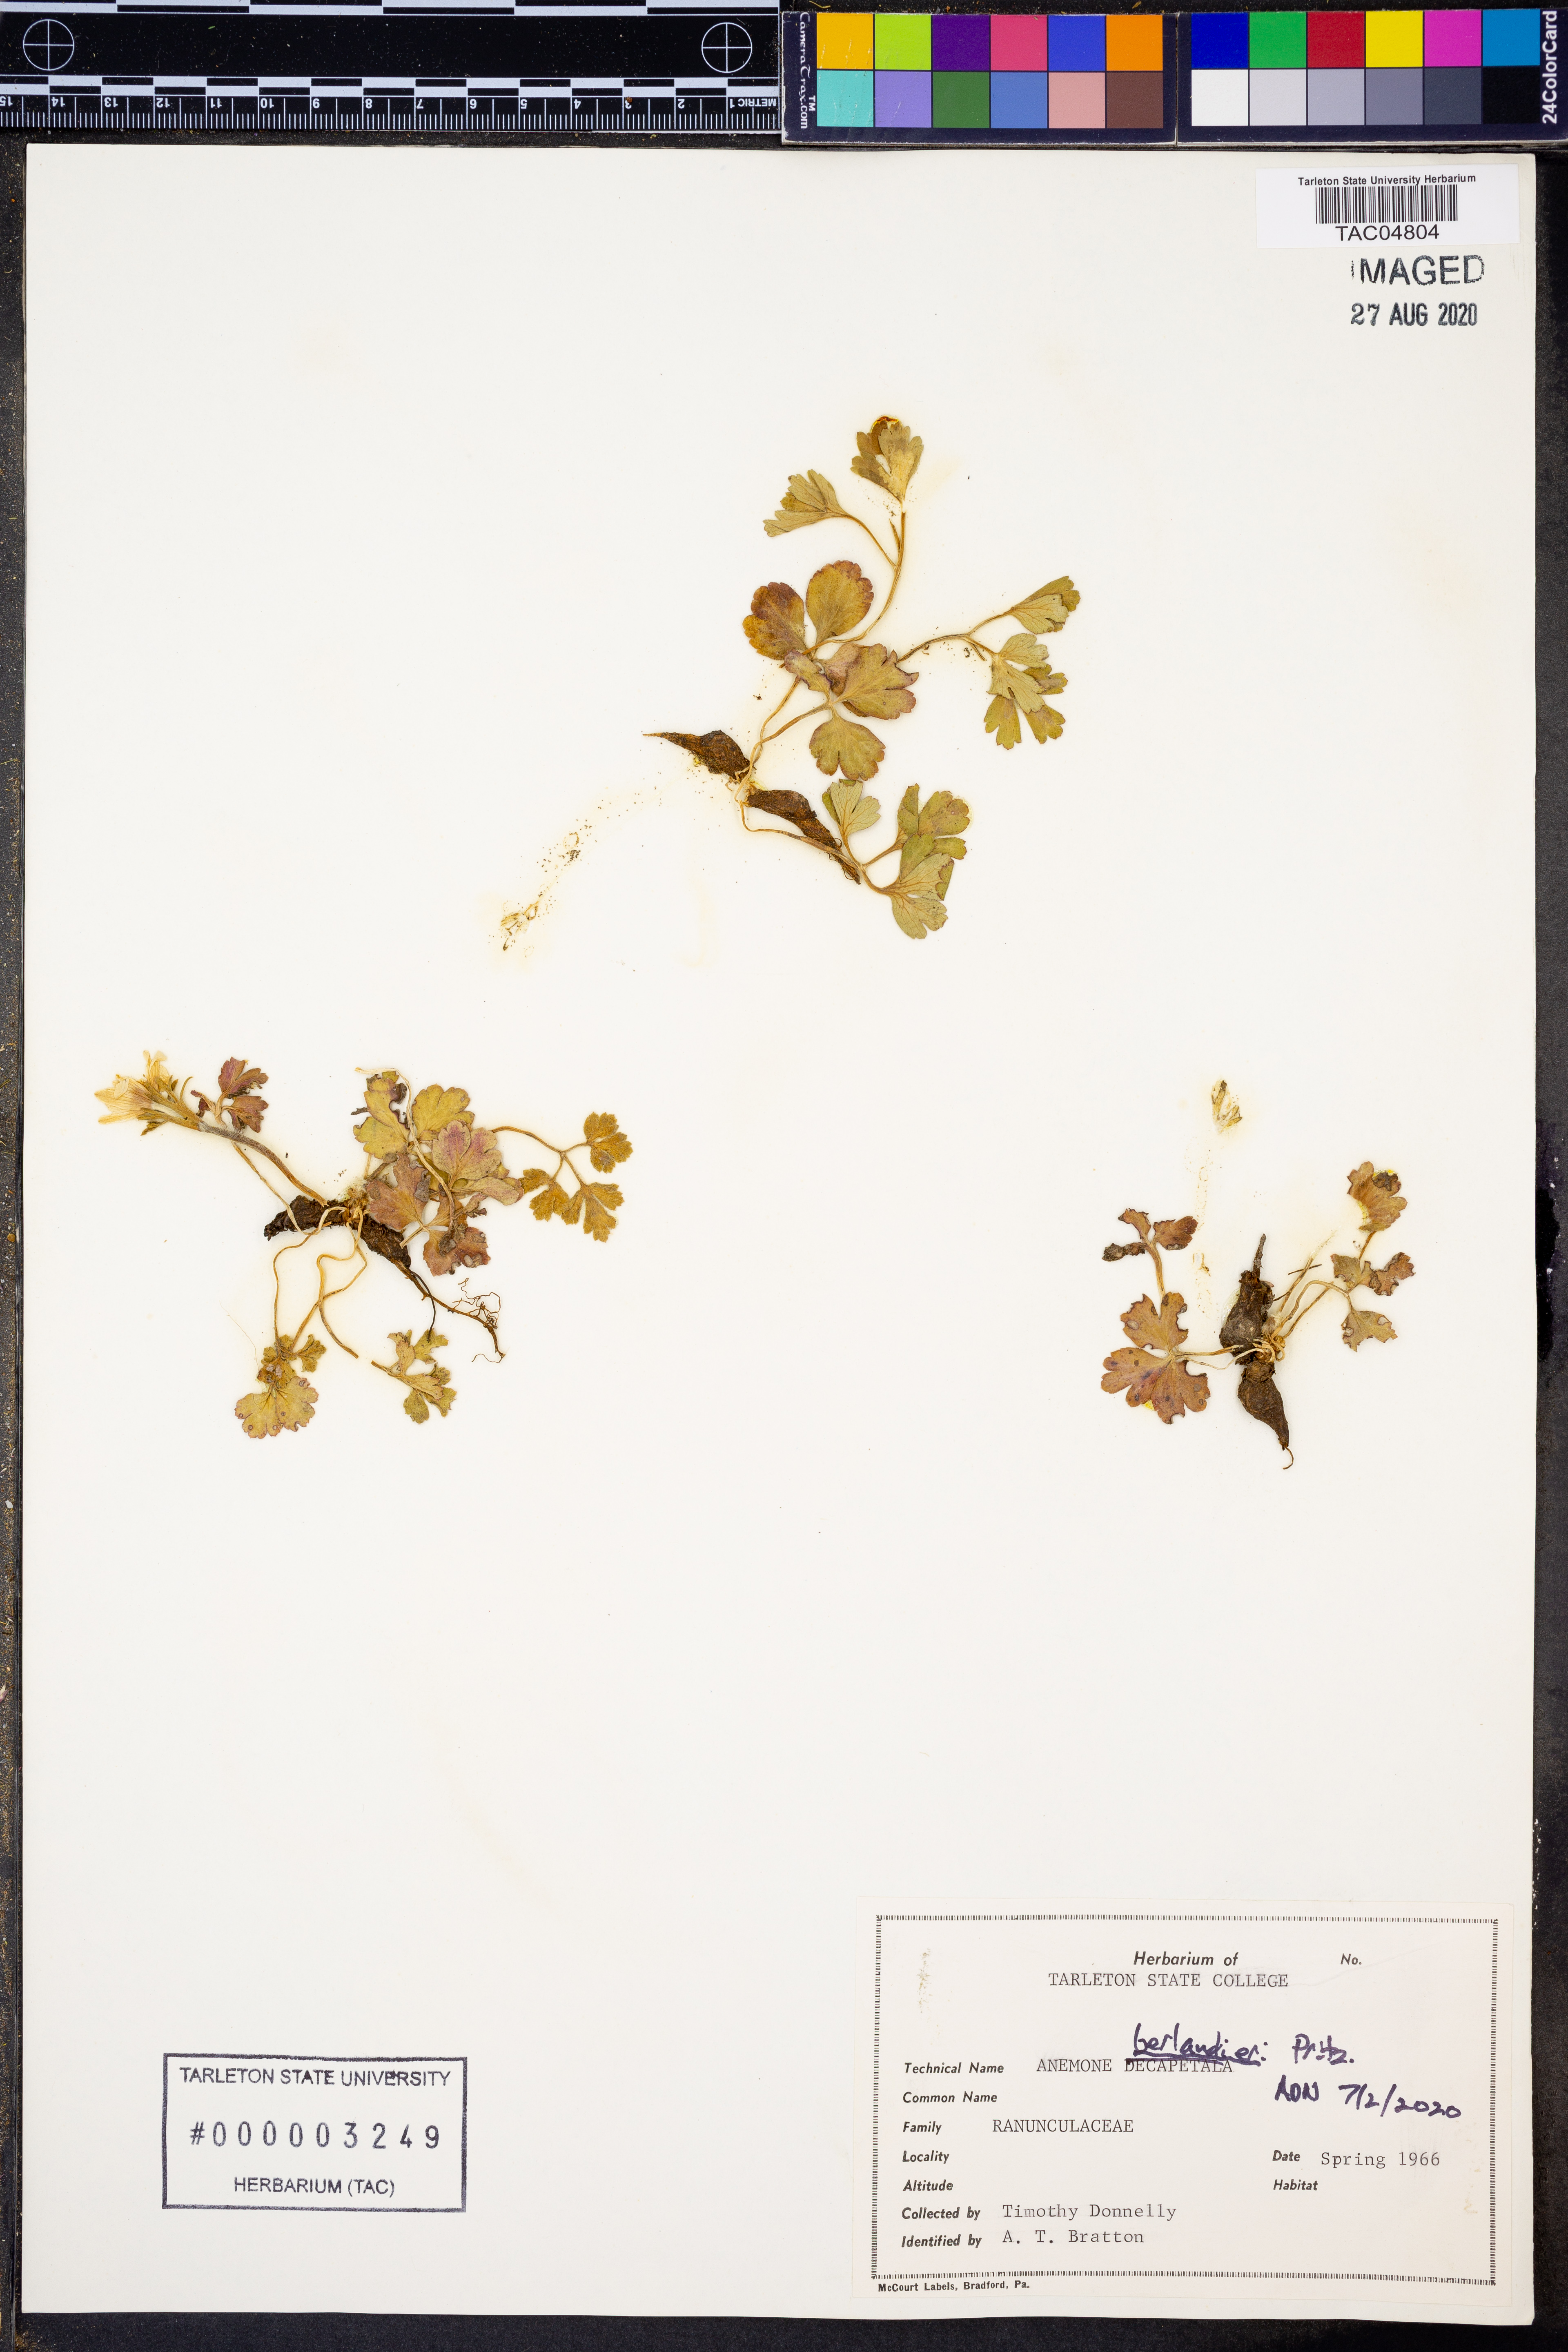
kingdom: Plantae
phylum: Tracheophyta
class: Magnoliopsida
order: Ranunculales
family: Ranunculaceae
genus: Anemone
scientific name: Anemone berlandieri
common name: Ten-petal anemone
